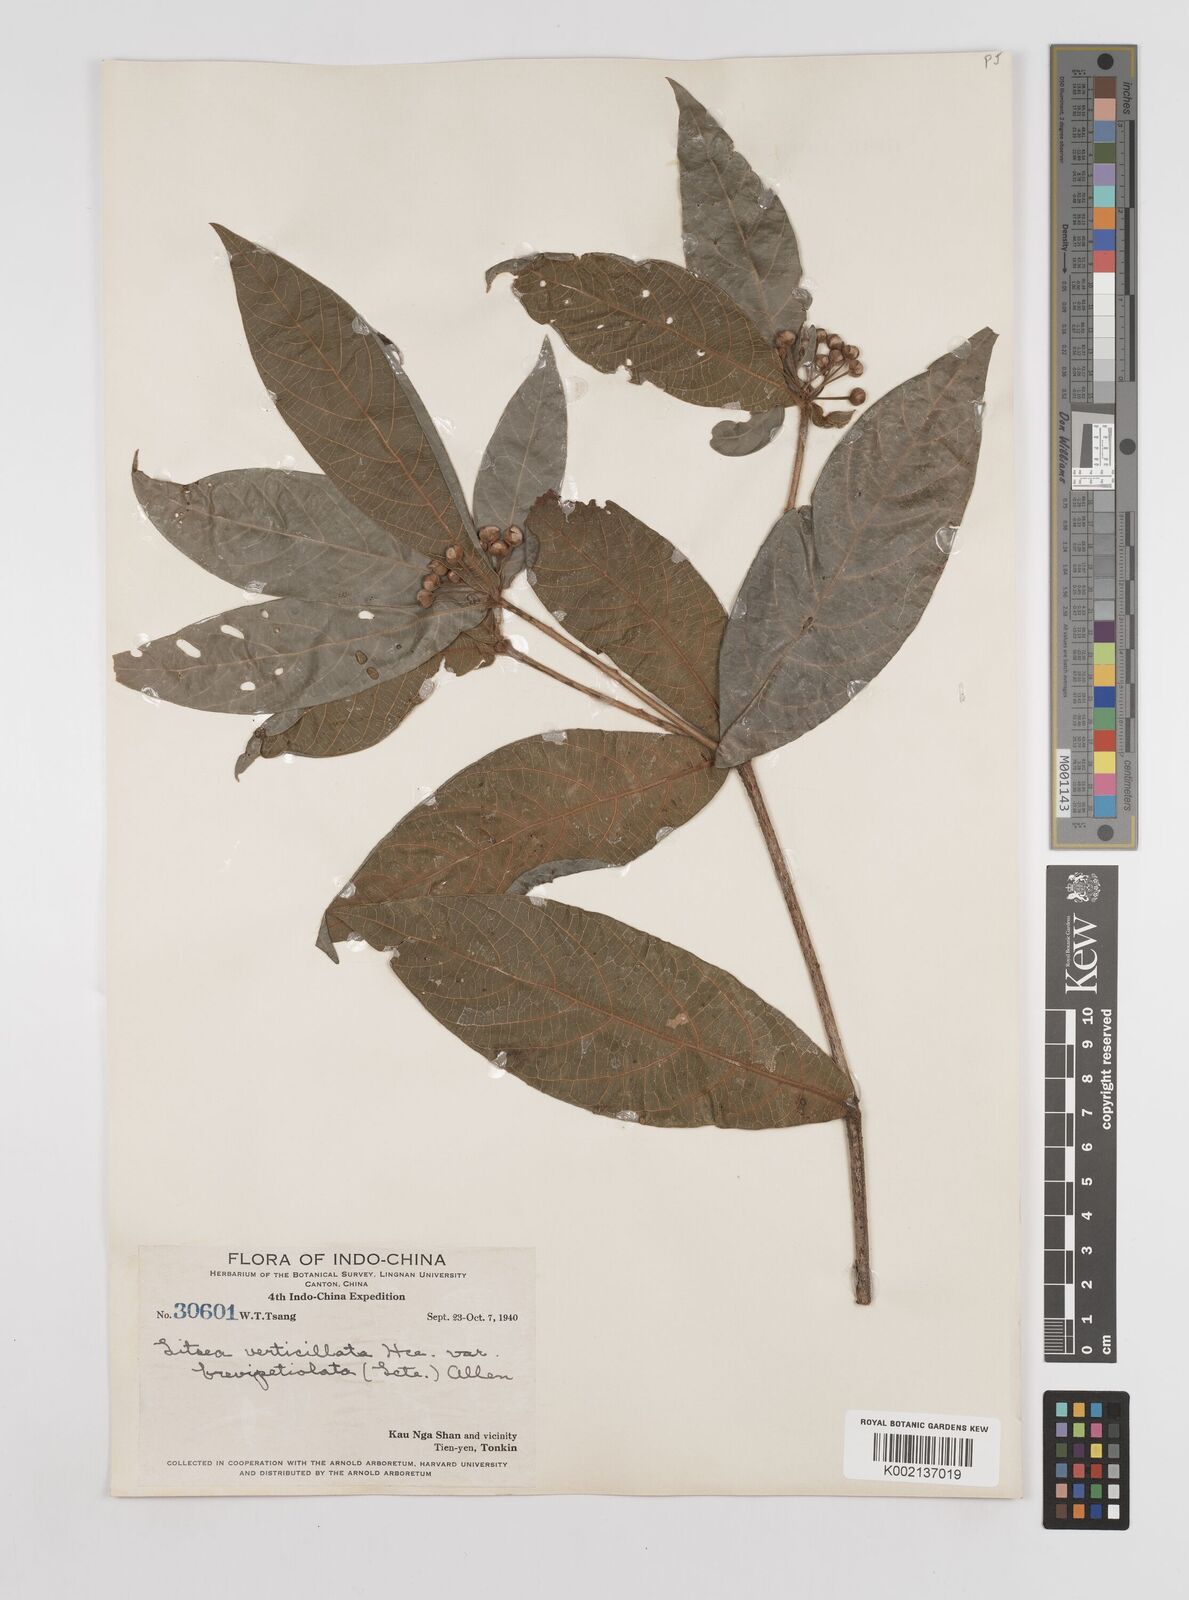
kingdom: Plantae
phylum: Tracheophyta
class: Magnoliopsida
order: Laurales
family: Lauraceae
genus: Litsea
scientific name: Litsea verticillata
